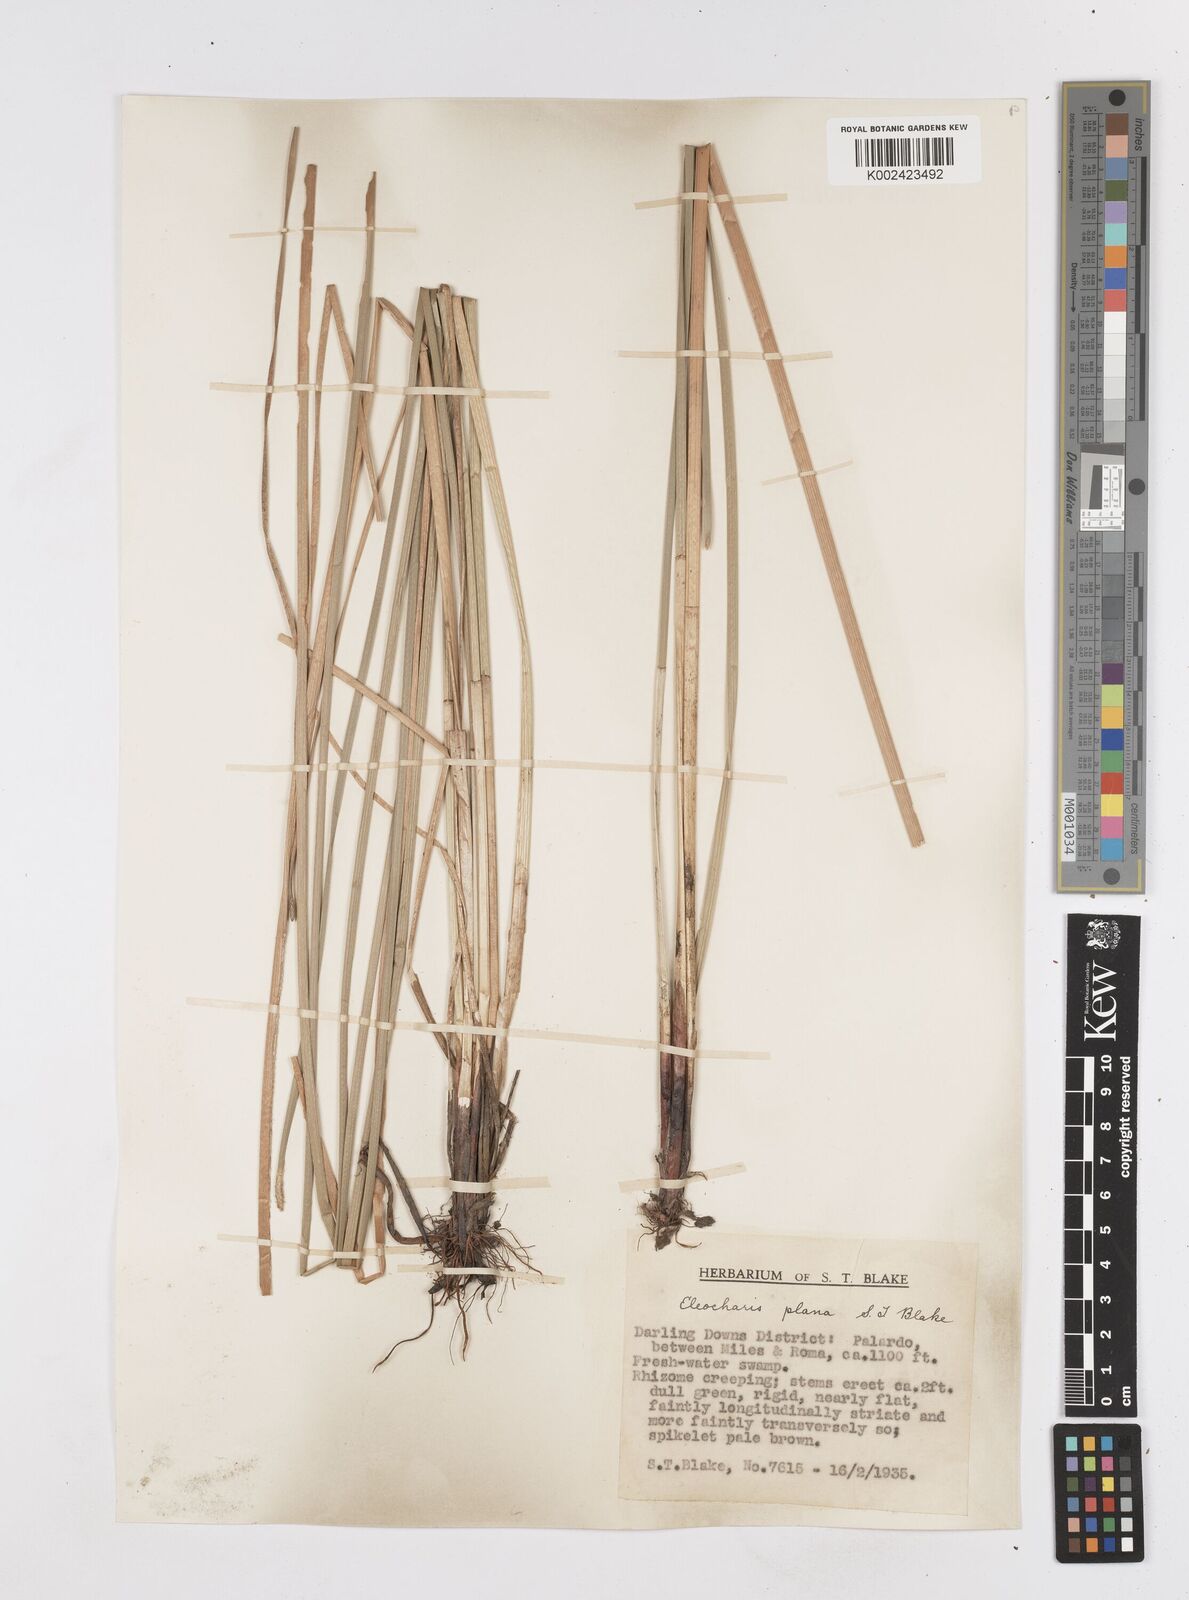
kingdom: Plantae
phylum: Tracheophyta
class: Liliopsida
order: Poales
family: Cyperaceae
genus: Eleocharis
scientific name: Eleocharis plana
